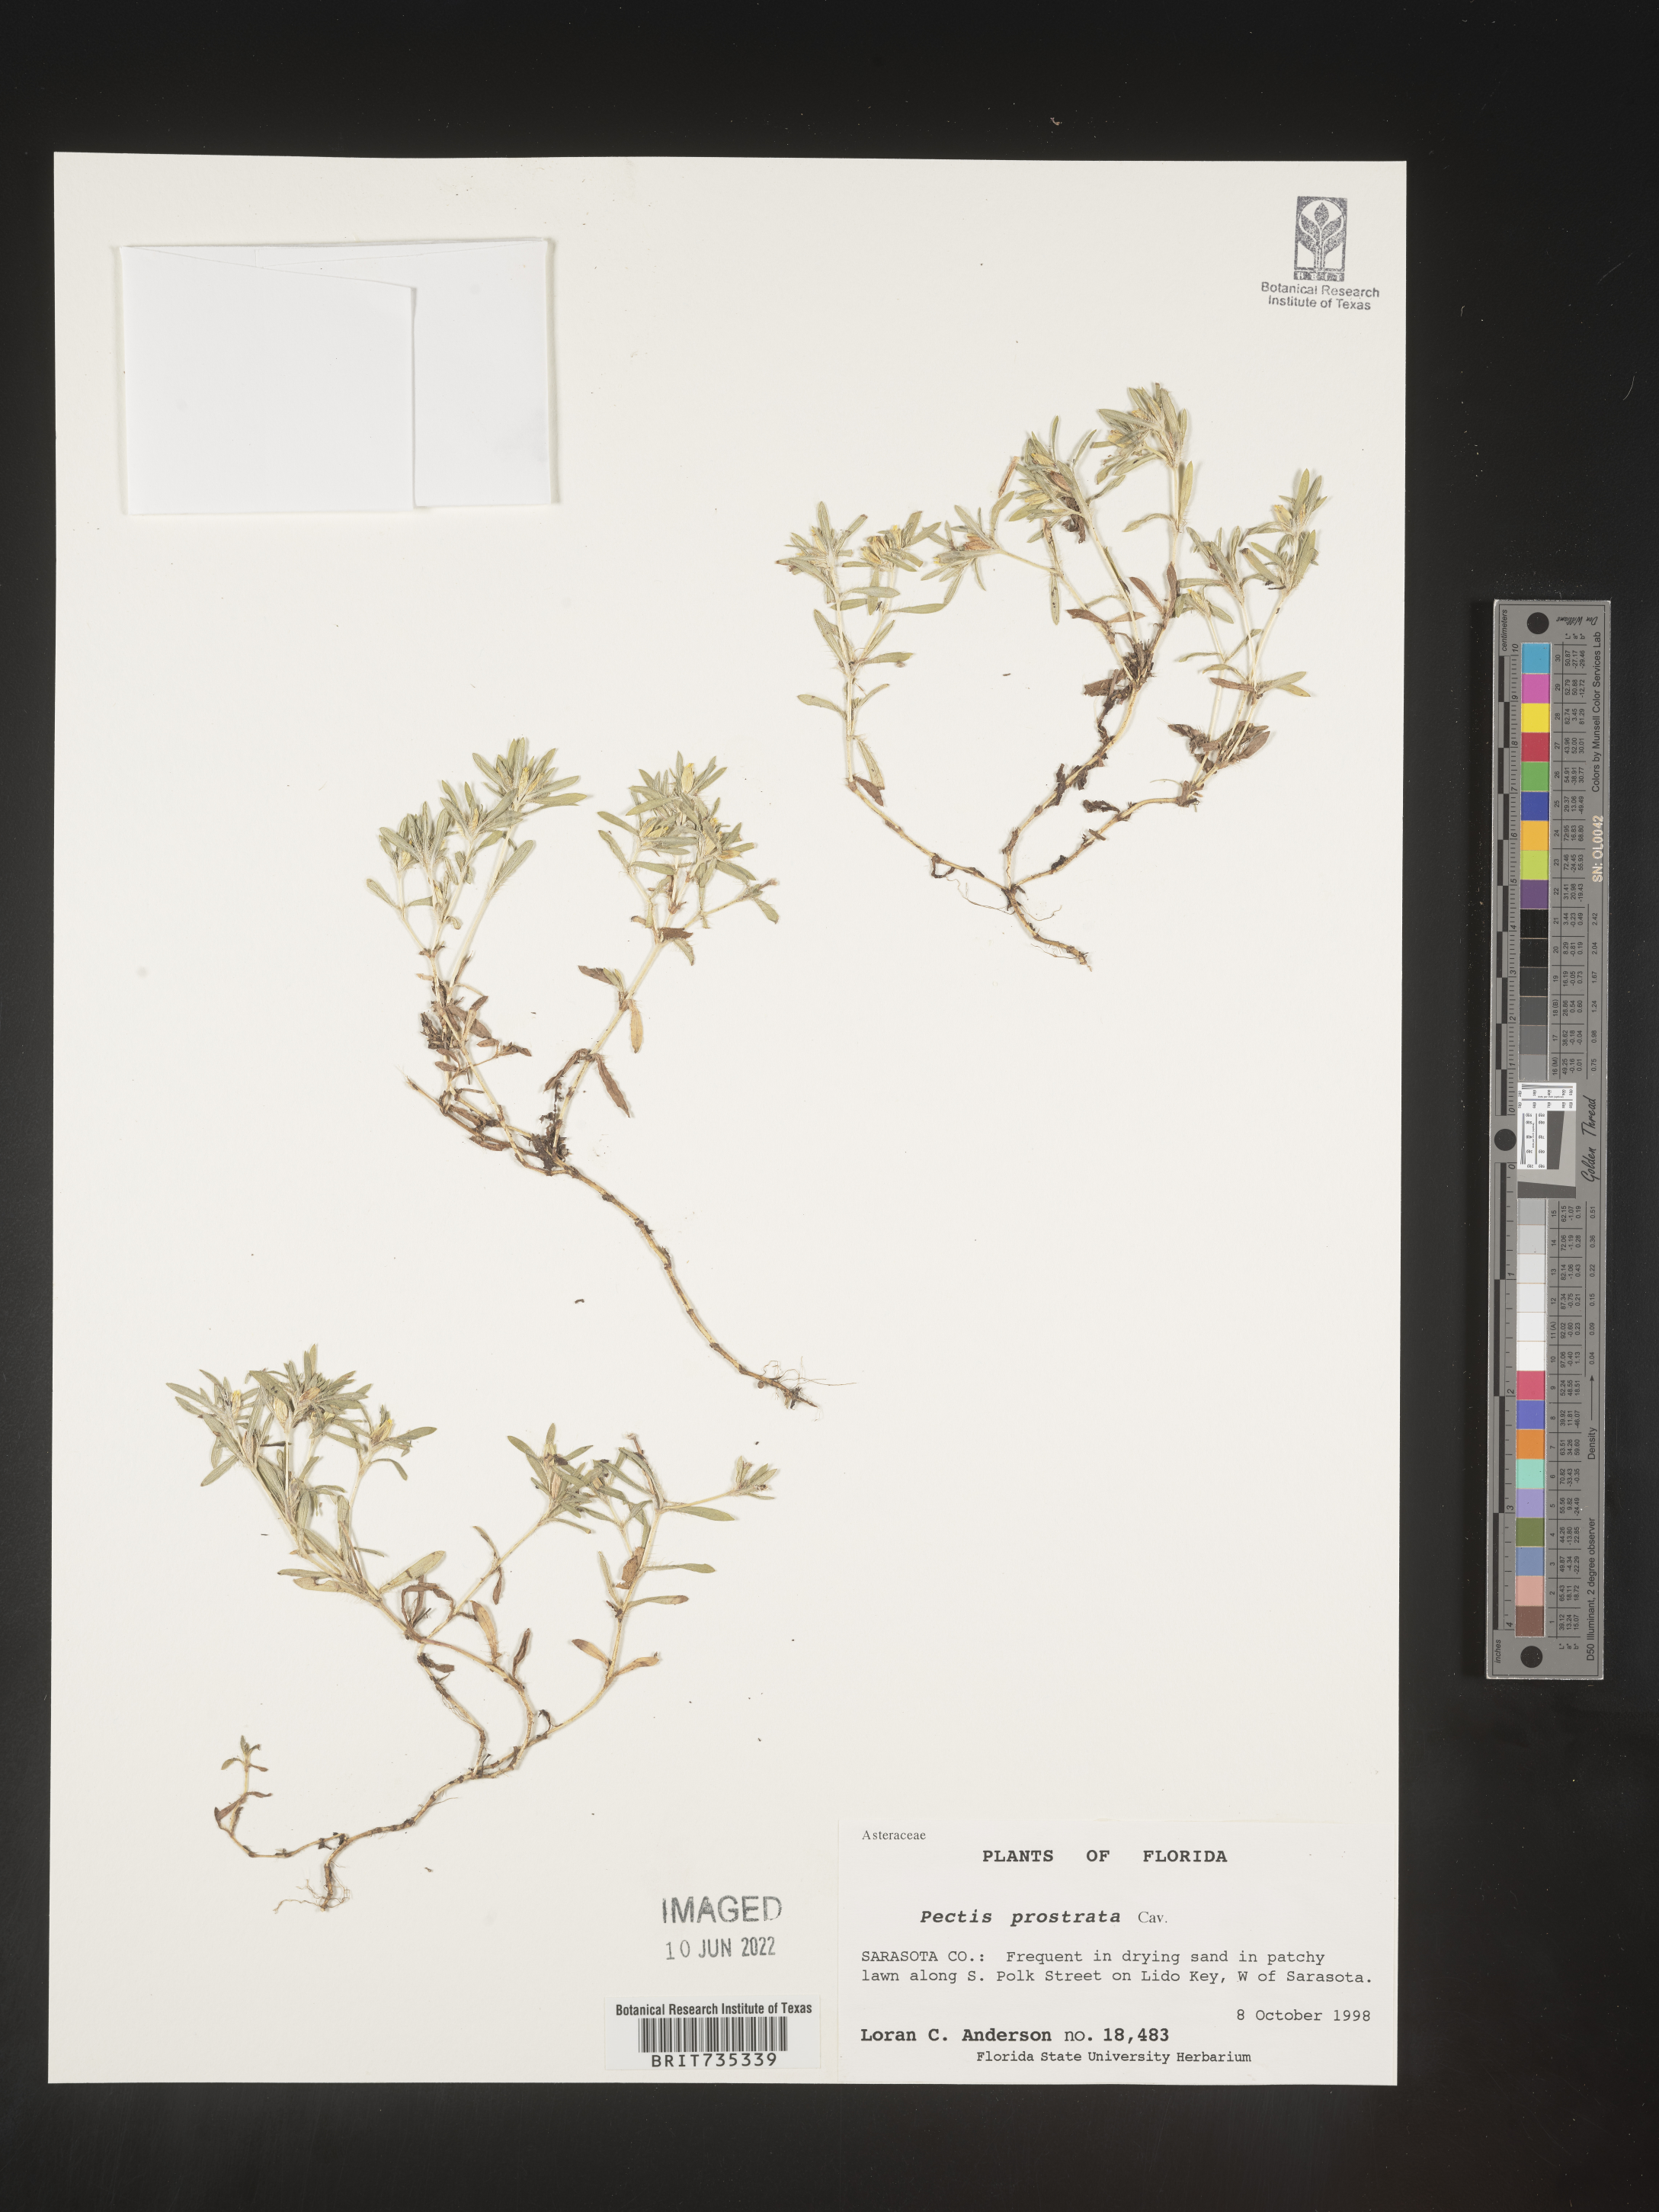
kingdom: Plantae
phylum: Tracheophyta
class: Magnoliopsida
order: Asterales
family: Asteraceae
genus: Pectis
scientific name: Pectis prostrata
